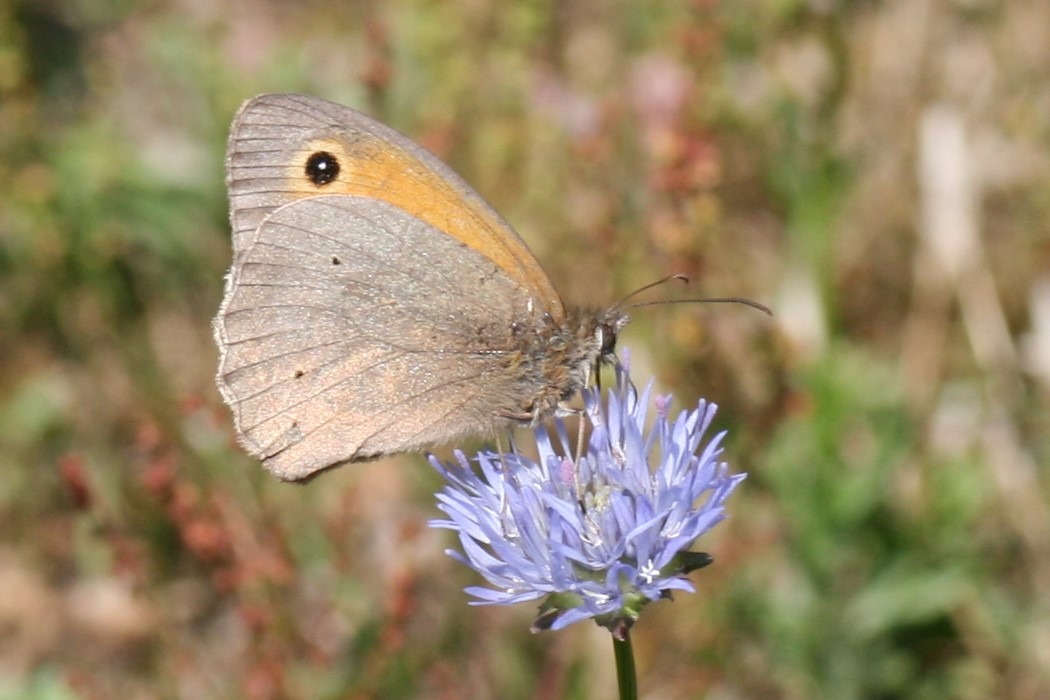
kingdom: Animalia
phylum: Arthropoda
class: Insecta
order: Lepidoptera
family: Nymphalidae
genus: Maniola
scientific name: Maniola jurtina
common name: Græsrandøje
